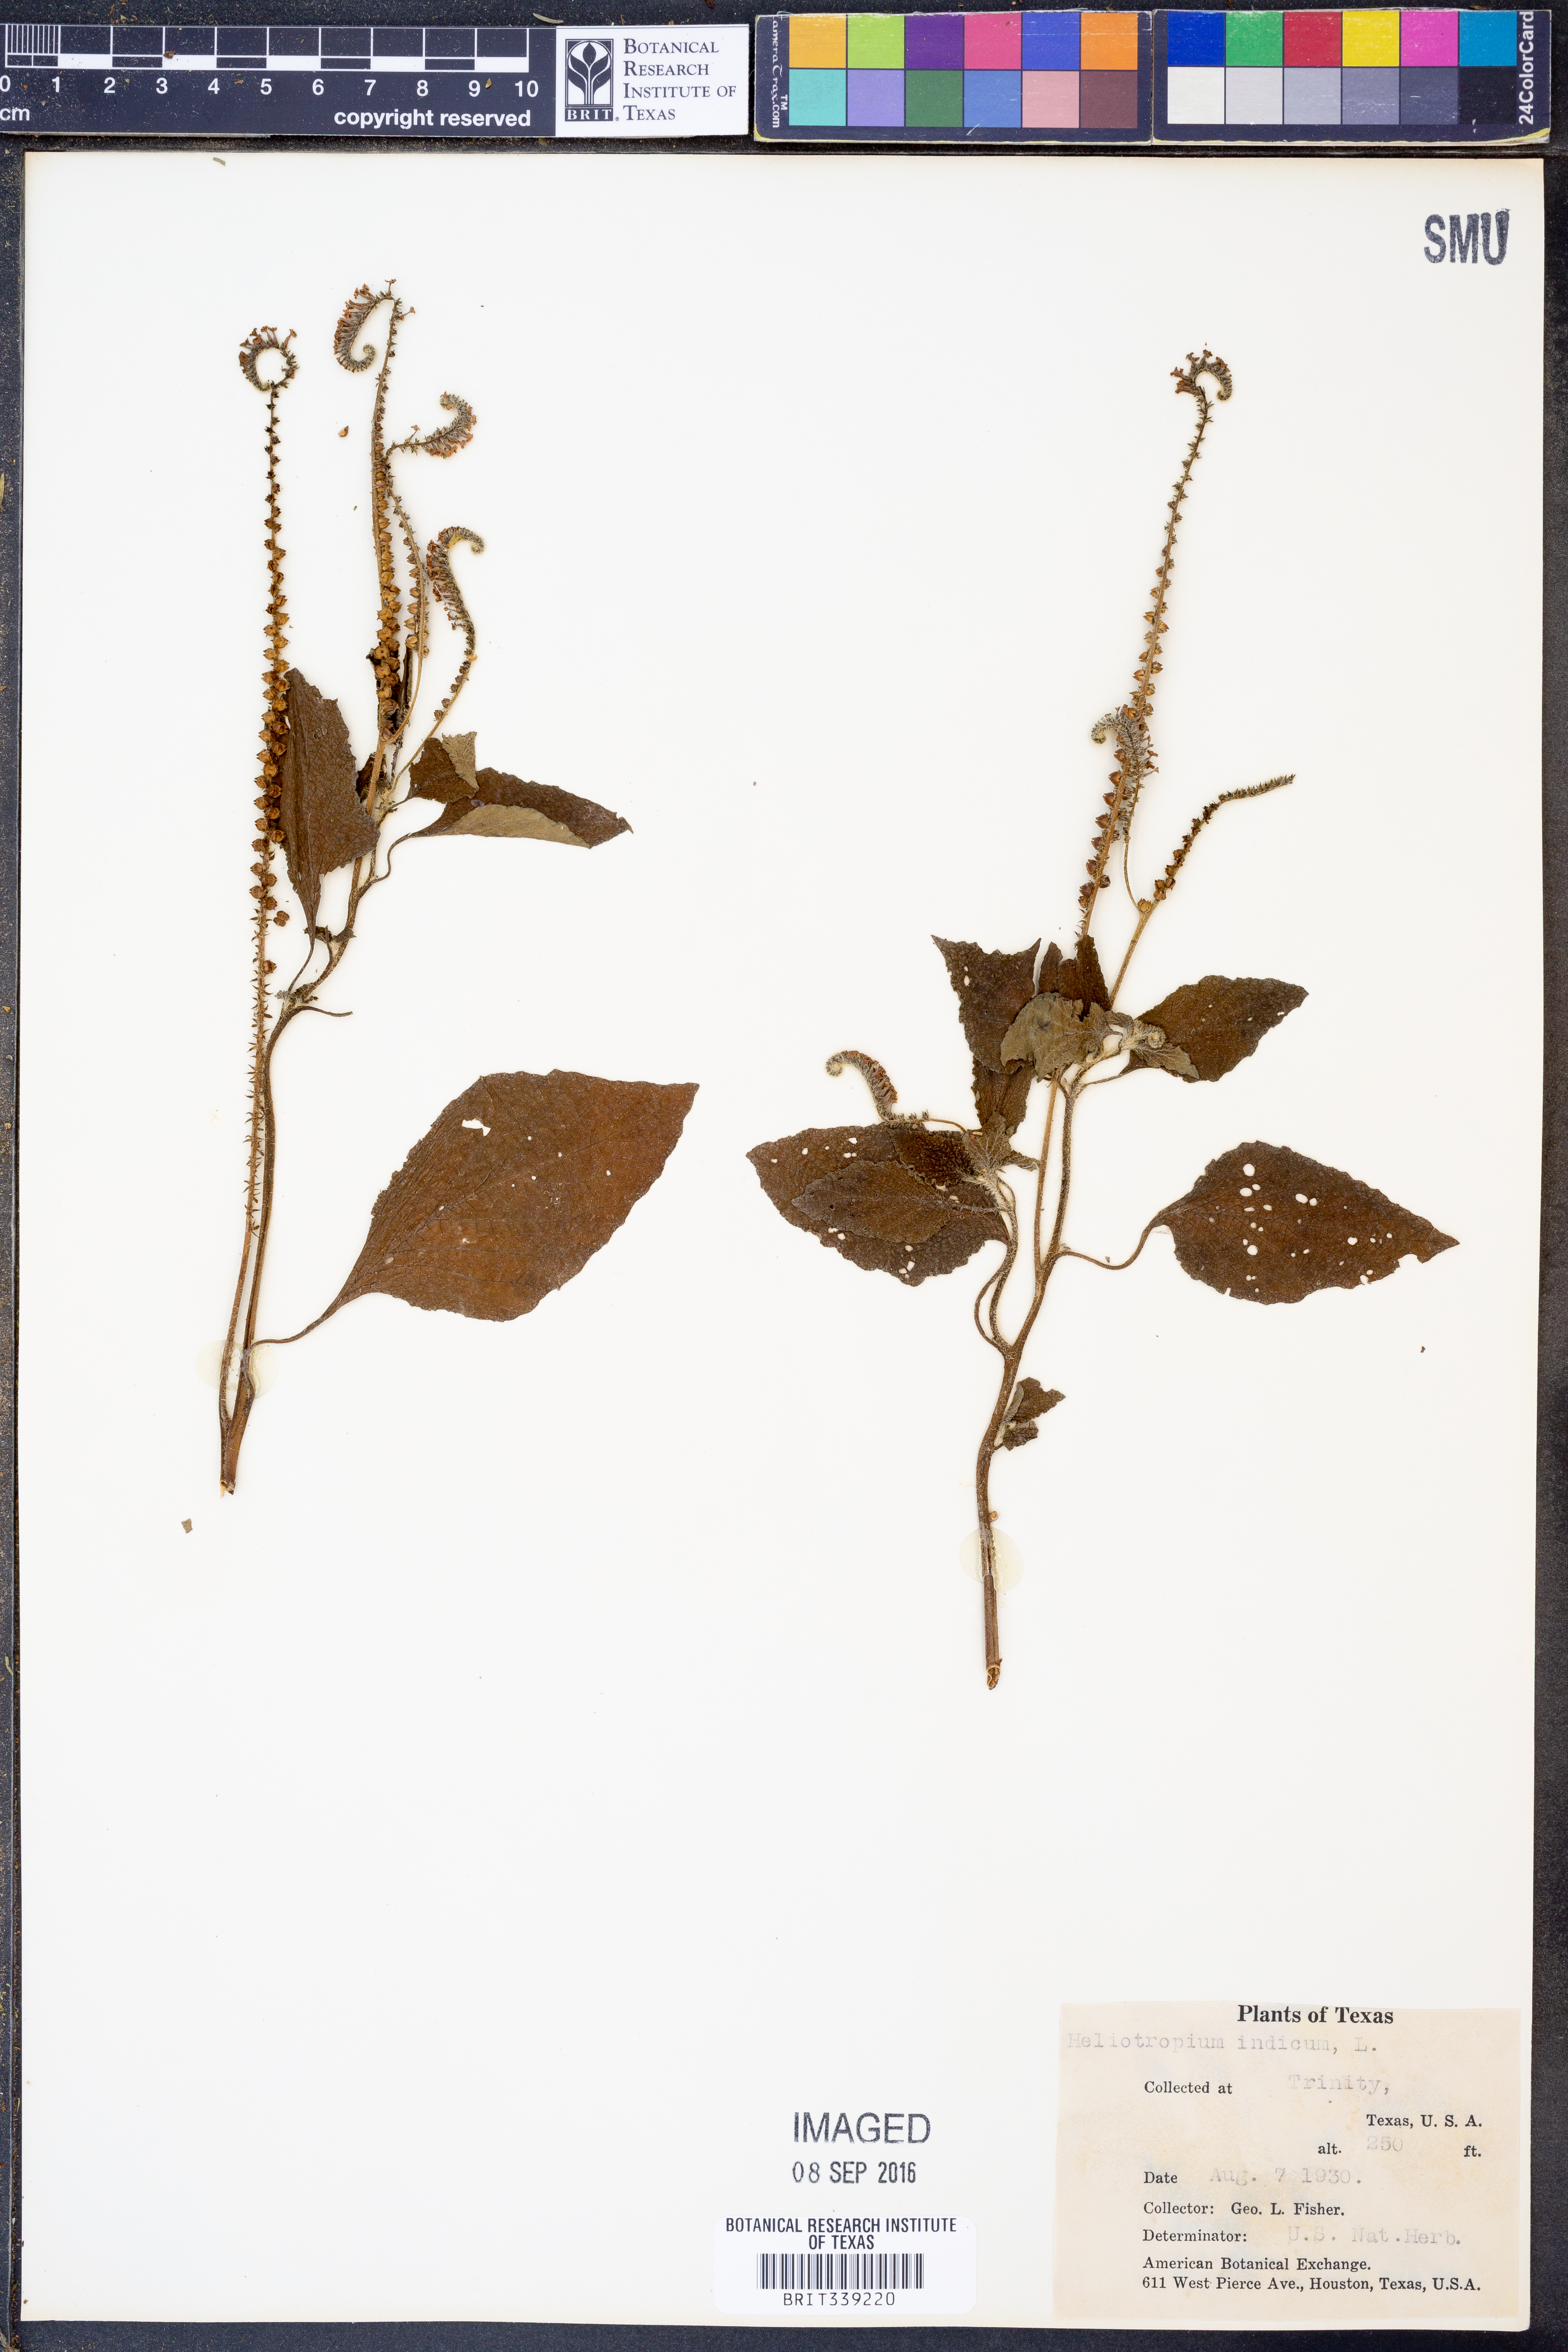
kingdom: Plantae
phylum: Tracheophyta
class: Magnoliopsida
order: Boraginales
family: Heliotropiaceae
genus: Heliotropium
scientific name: Heliotropium indicum
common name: Indian heliotrope
